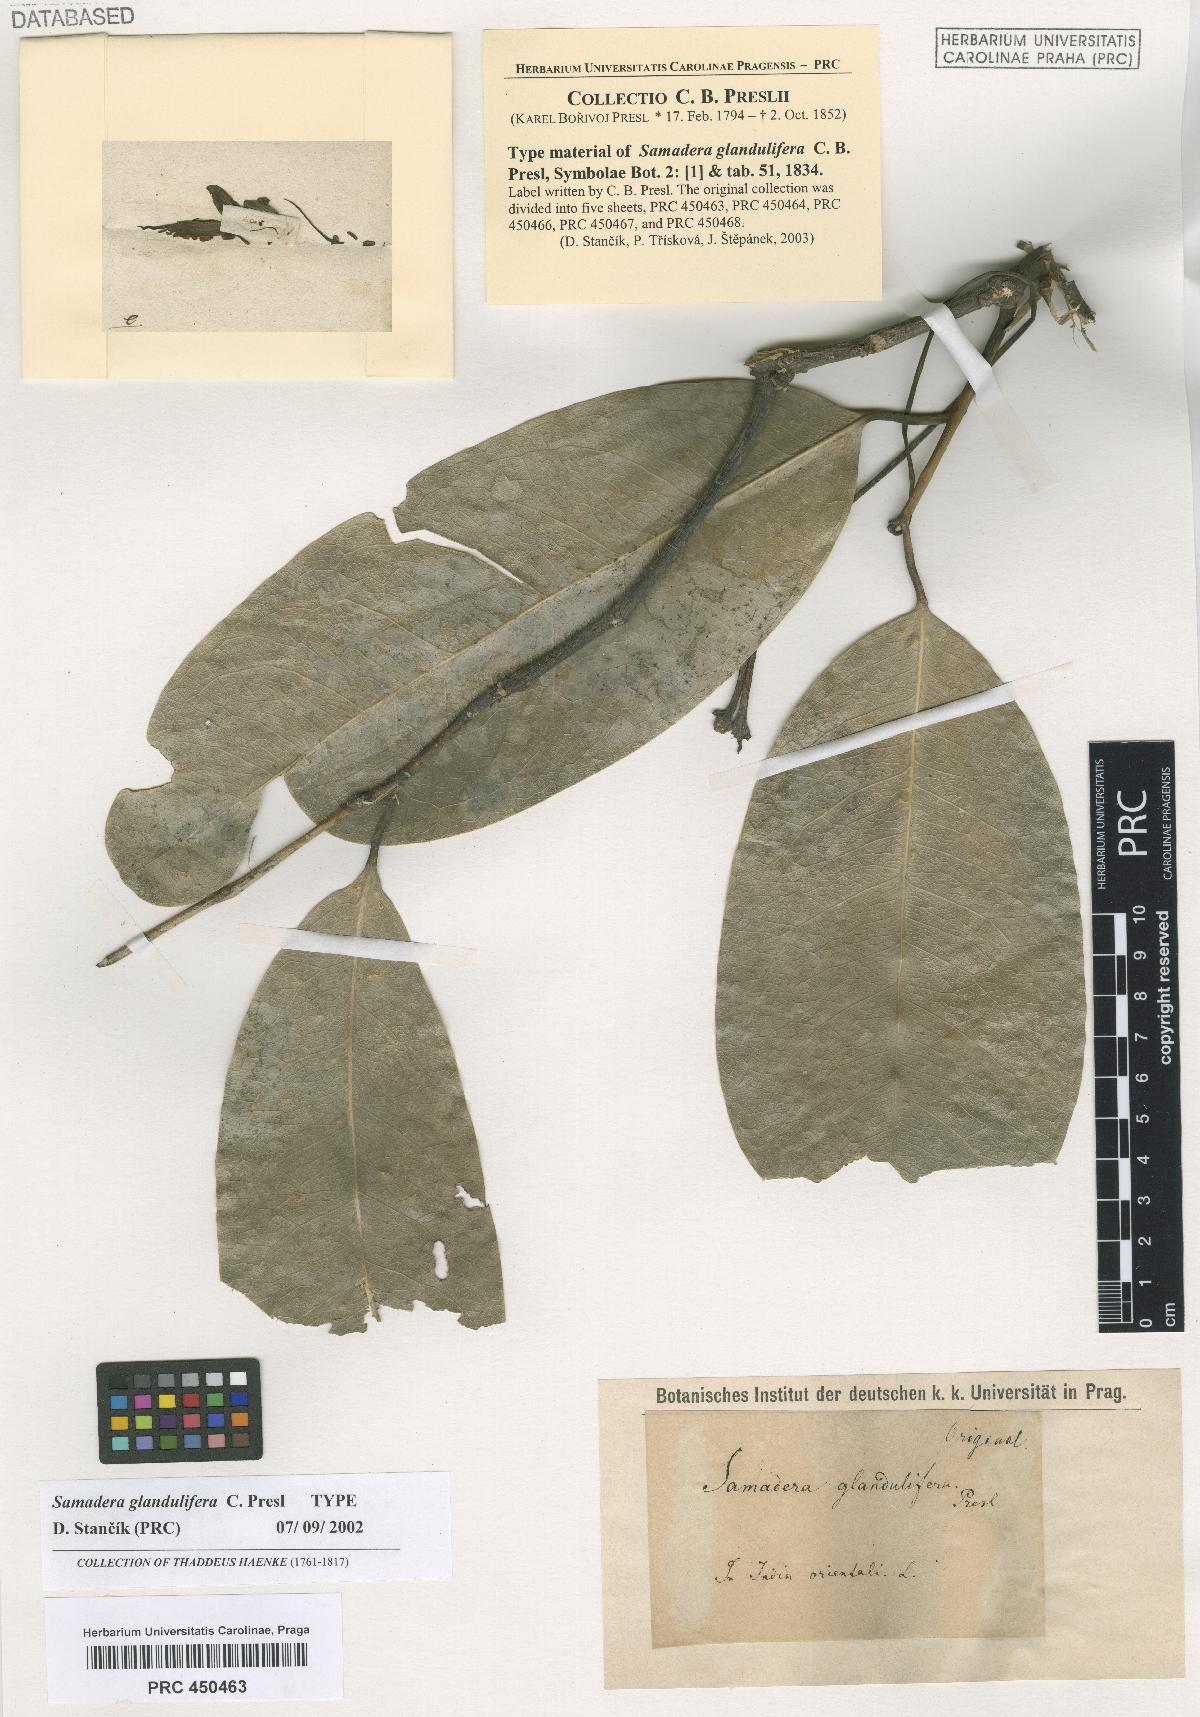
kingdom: Plantae
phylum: Tracheophyta
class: Magnoliopsida
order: Sapindales
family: Simaroubaceae
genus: Samadera
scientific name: Samadera indica
